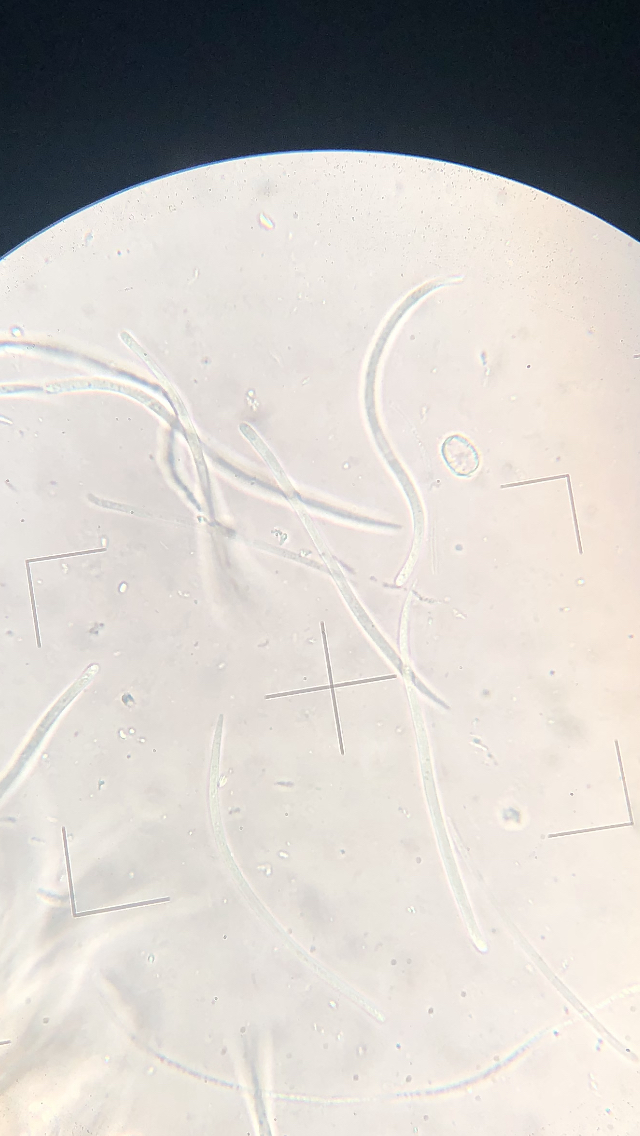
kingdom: Fungi
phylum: Ascomycota
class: Leotiomycetes
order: Rhytismatales
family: Rhytismataceae
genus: Lophodermium
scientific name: Lophodermium seditiosum
